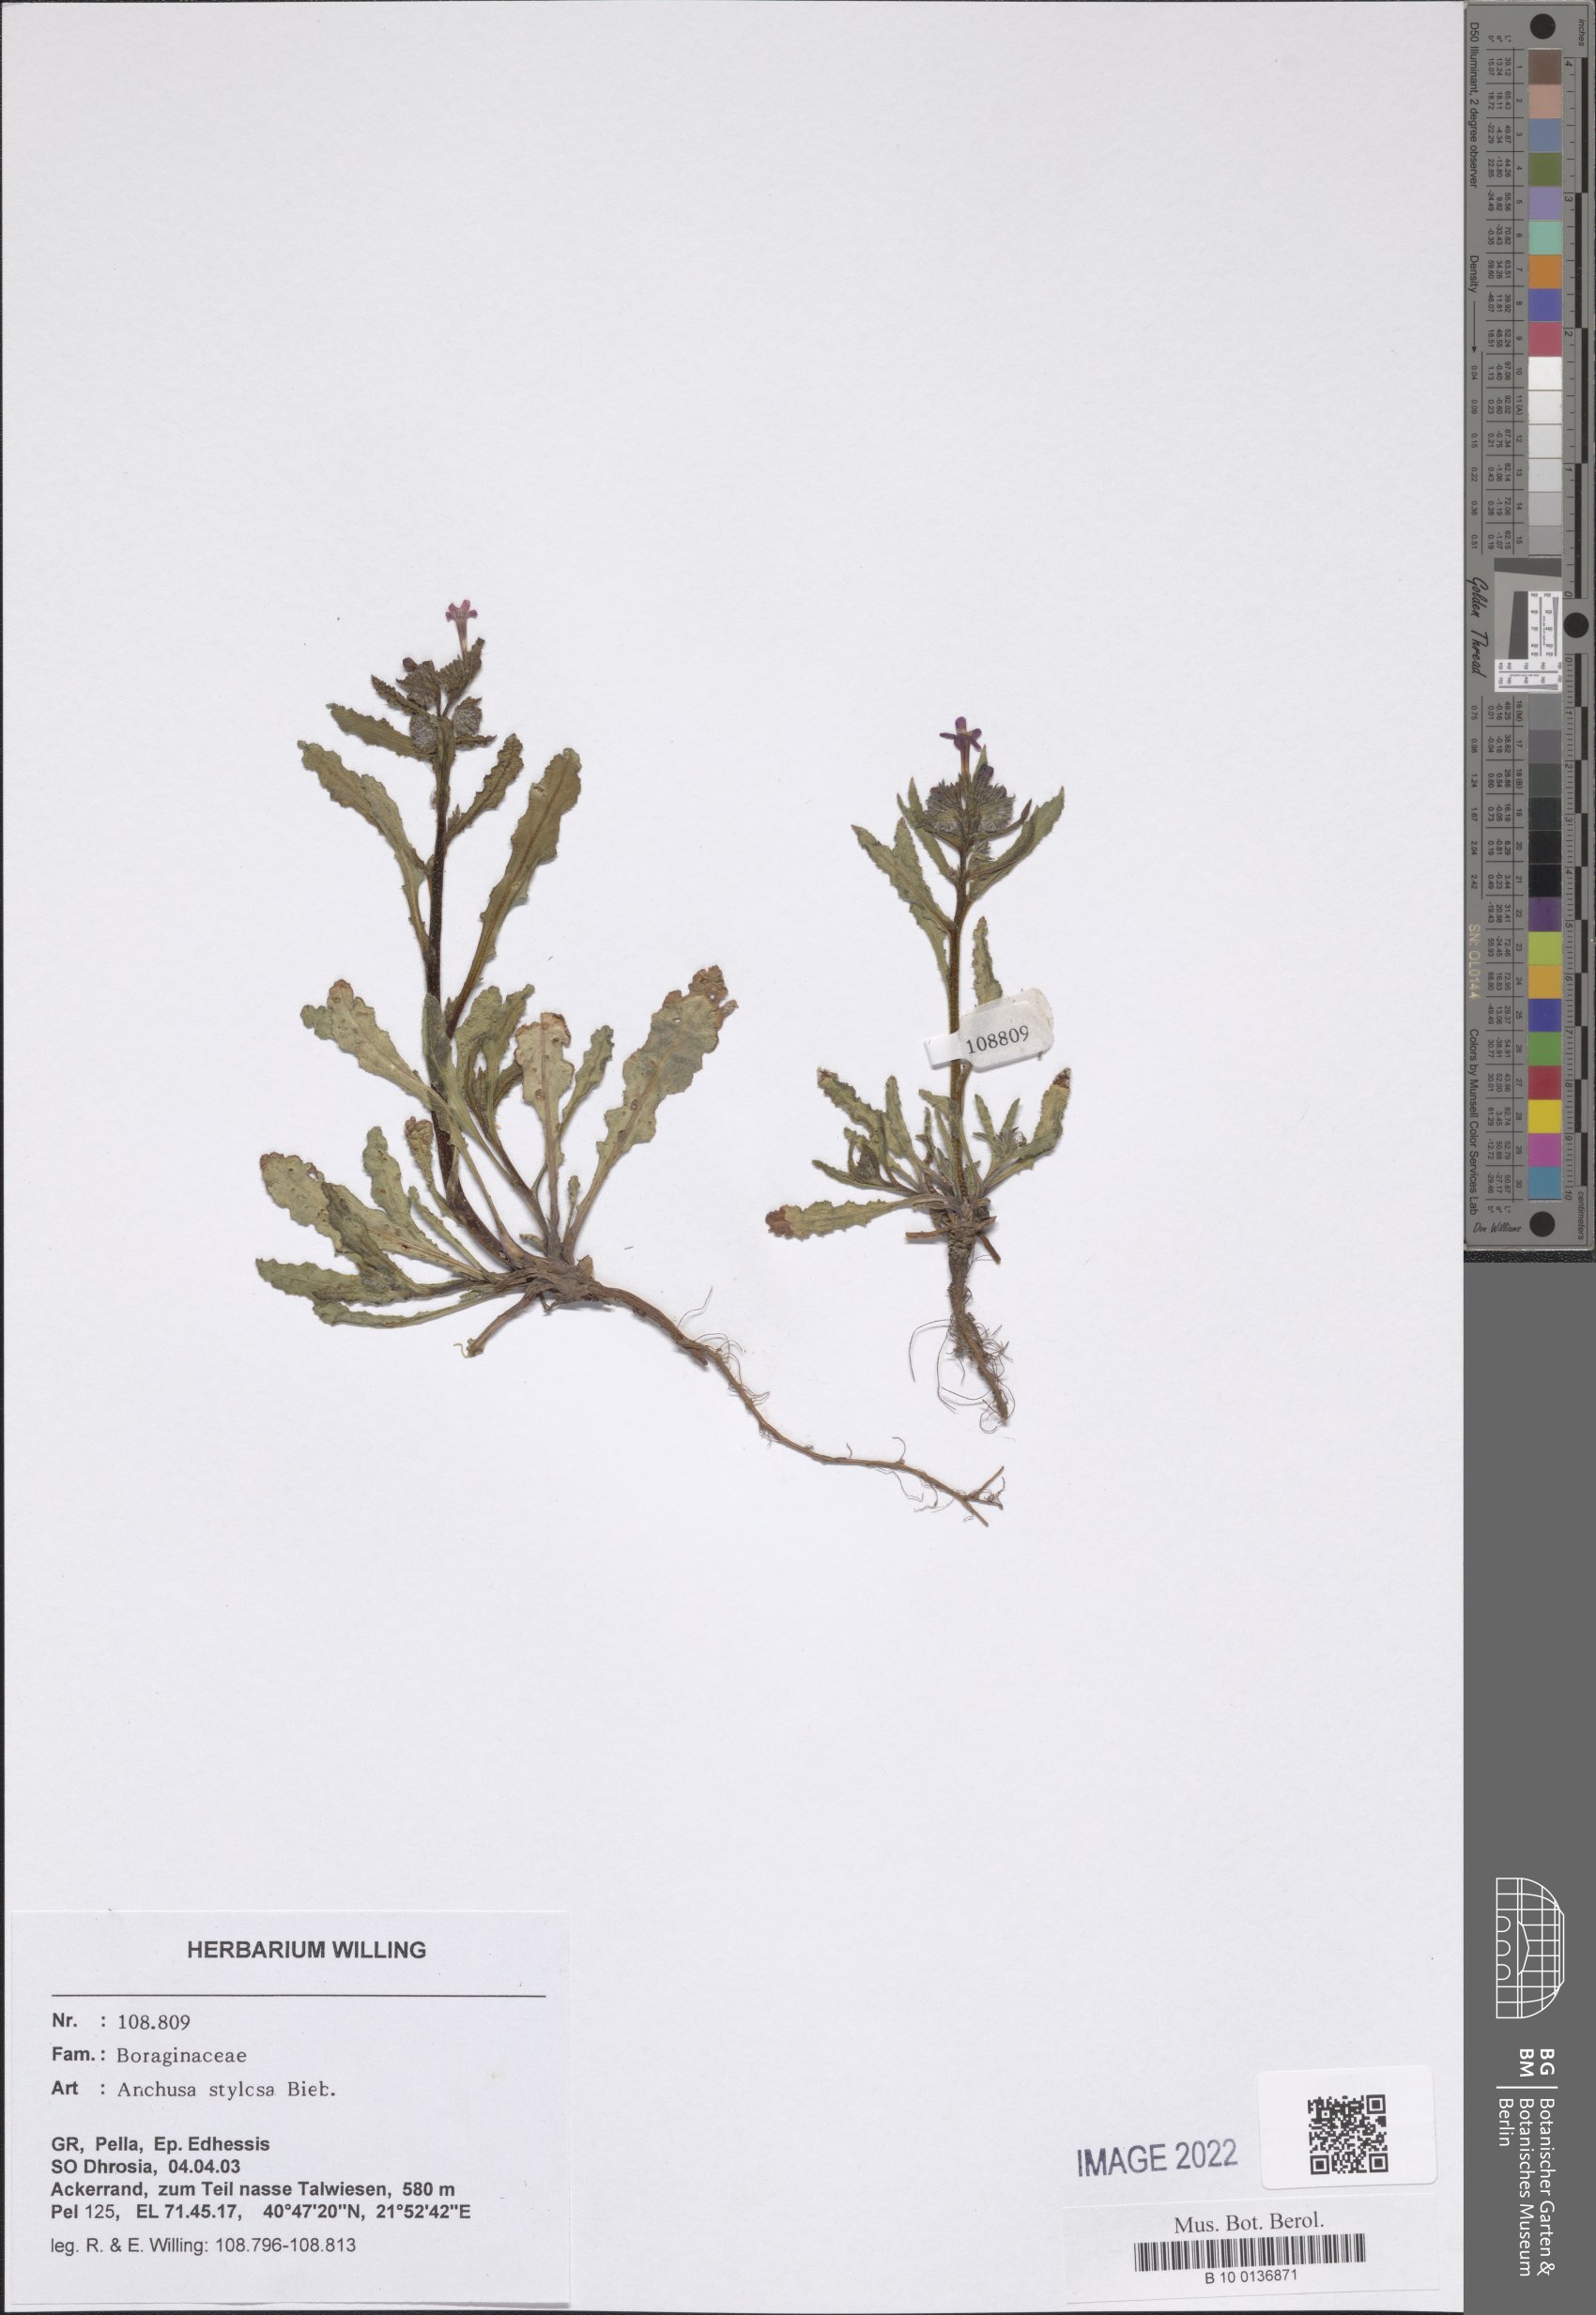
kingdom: Plantae
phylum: Tracheophyta
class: Magnoliopsida
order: Boraginales
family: Boraginaceae
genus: Anchusa
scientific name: Anchusa stylosa
